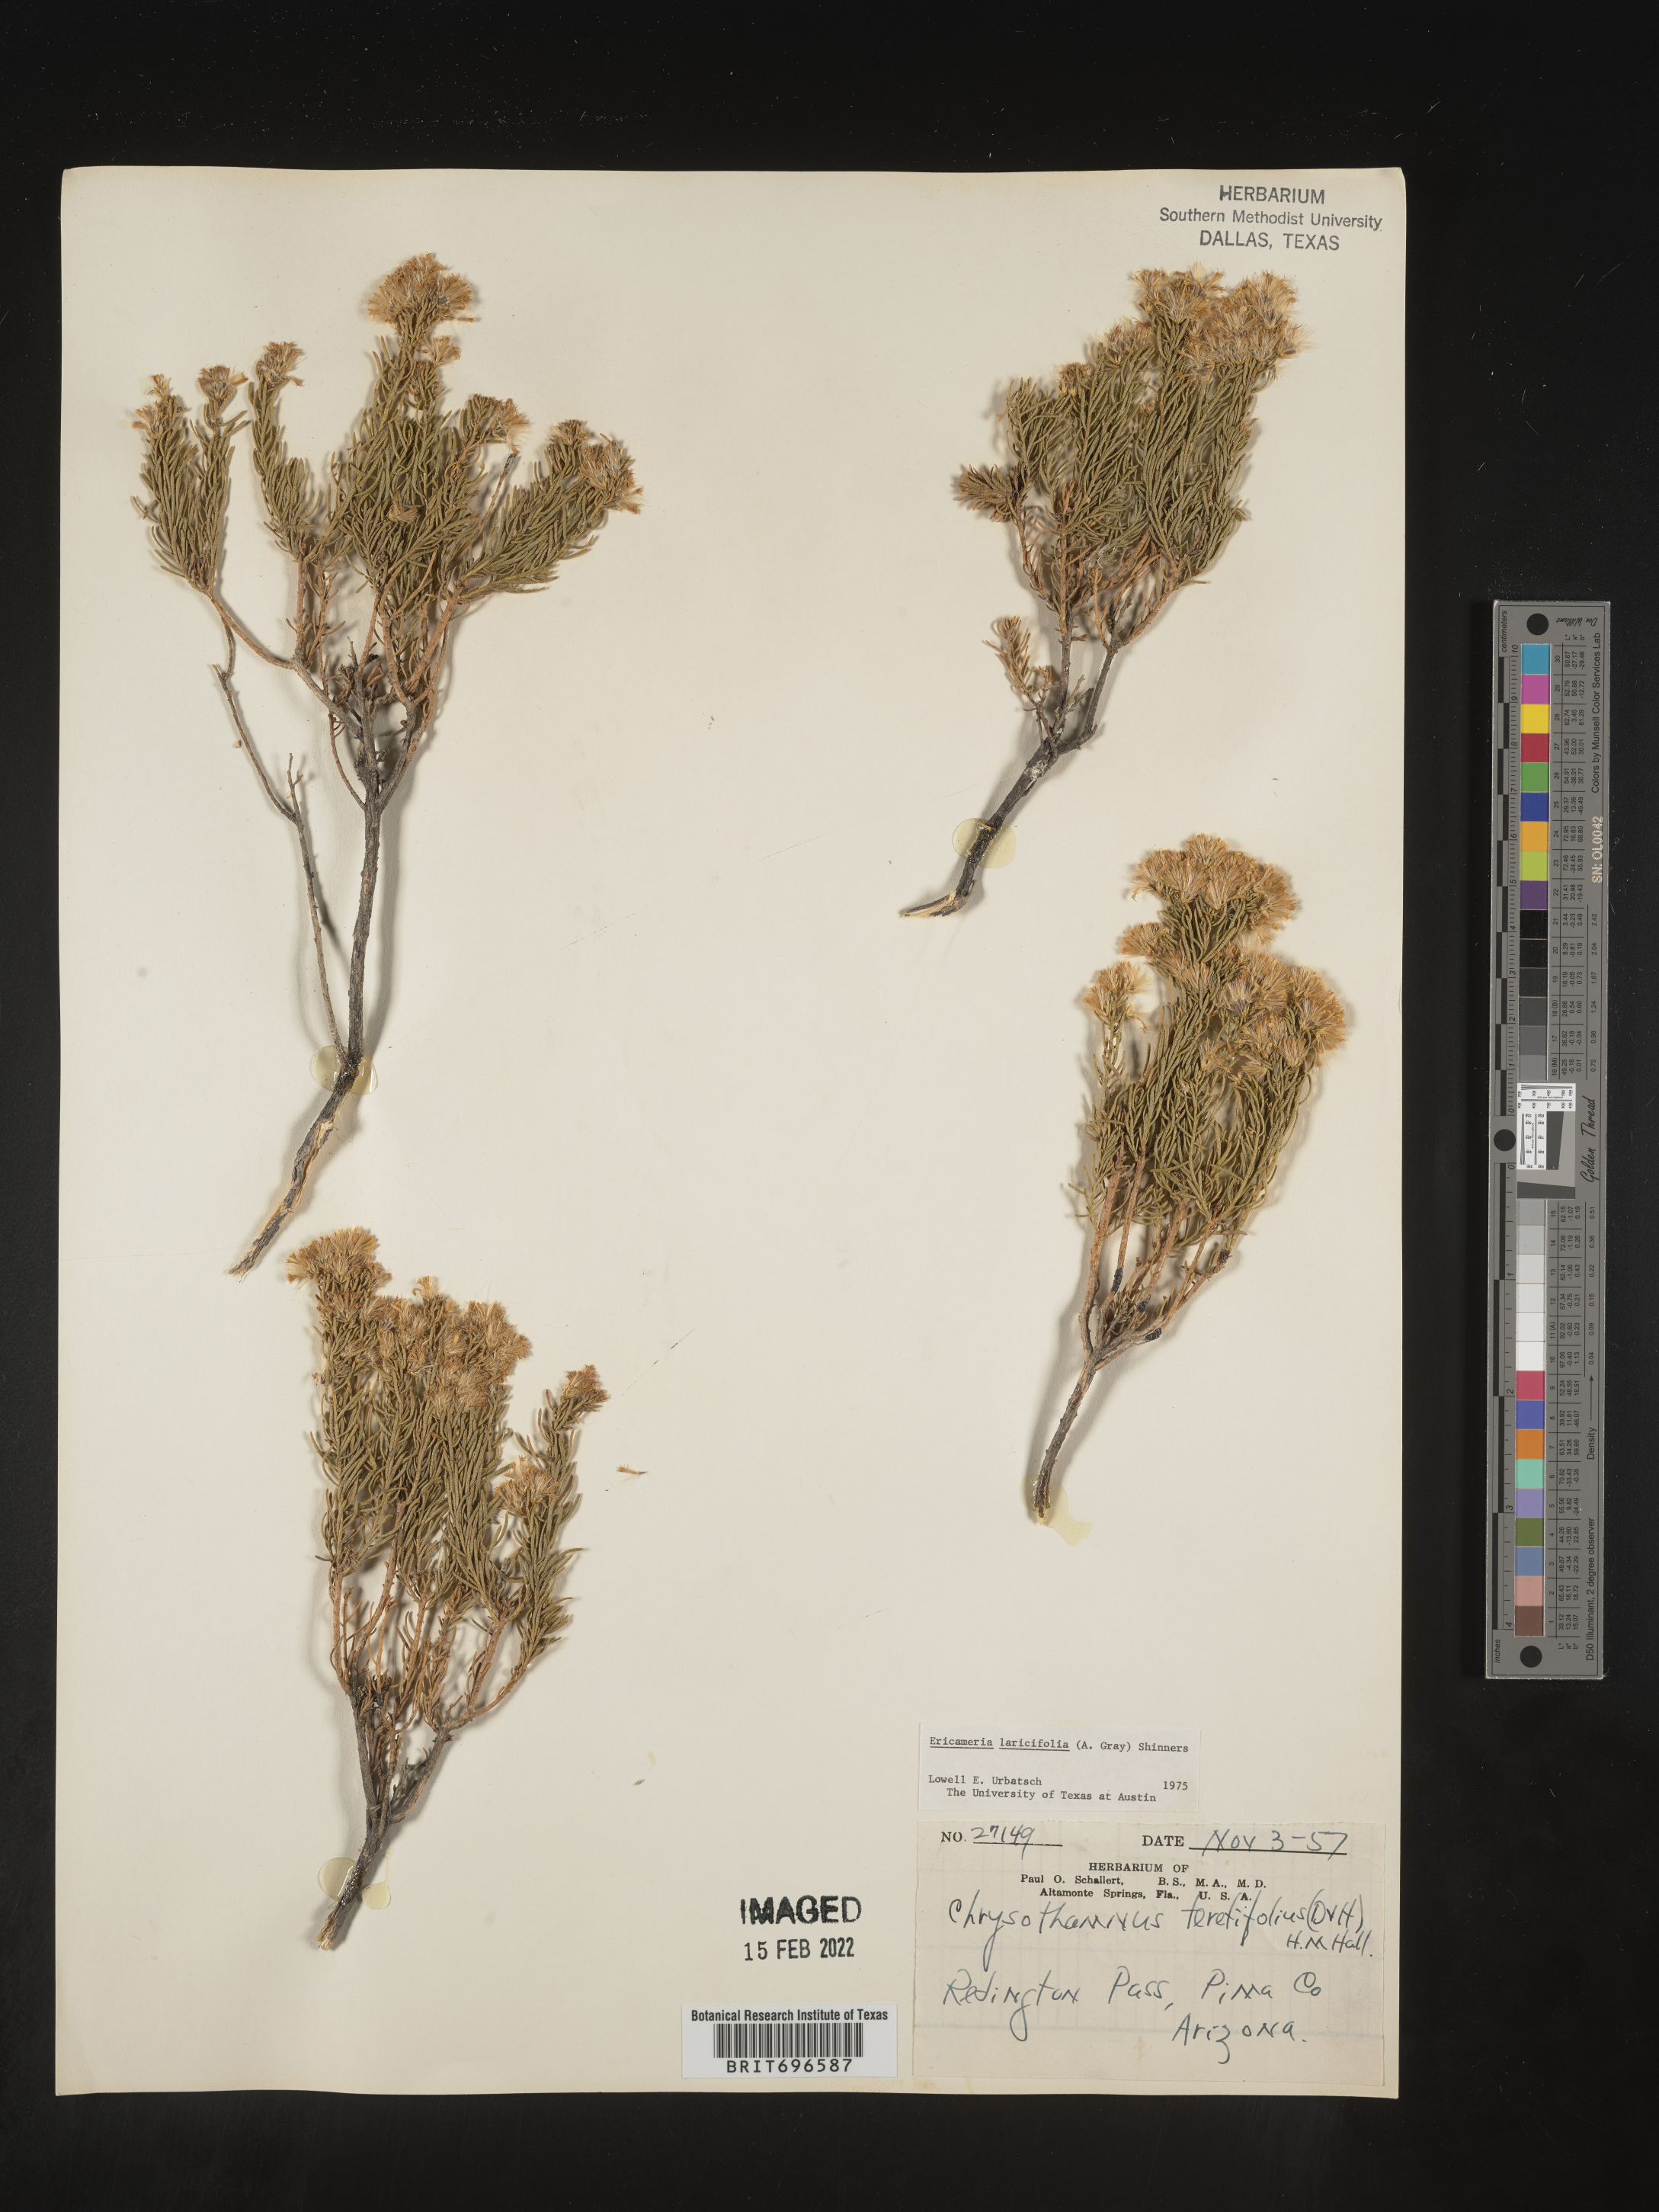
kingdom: Plantae
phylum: Tracheophyta
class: Magnoliopsida
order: Asterales
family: Asteraceae
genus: Ericameria
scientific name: Ericameria laricifolia
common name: Turpentine-bush
